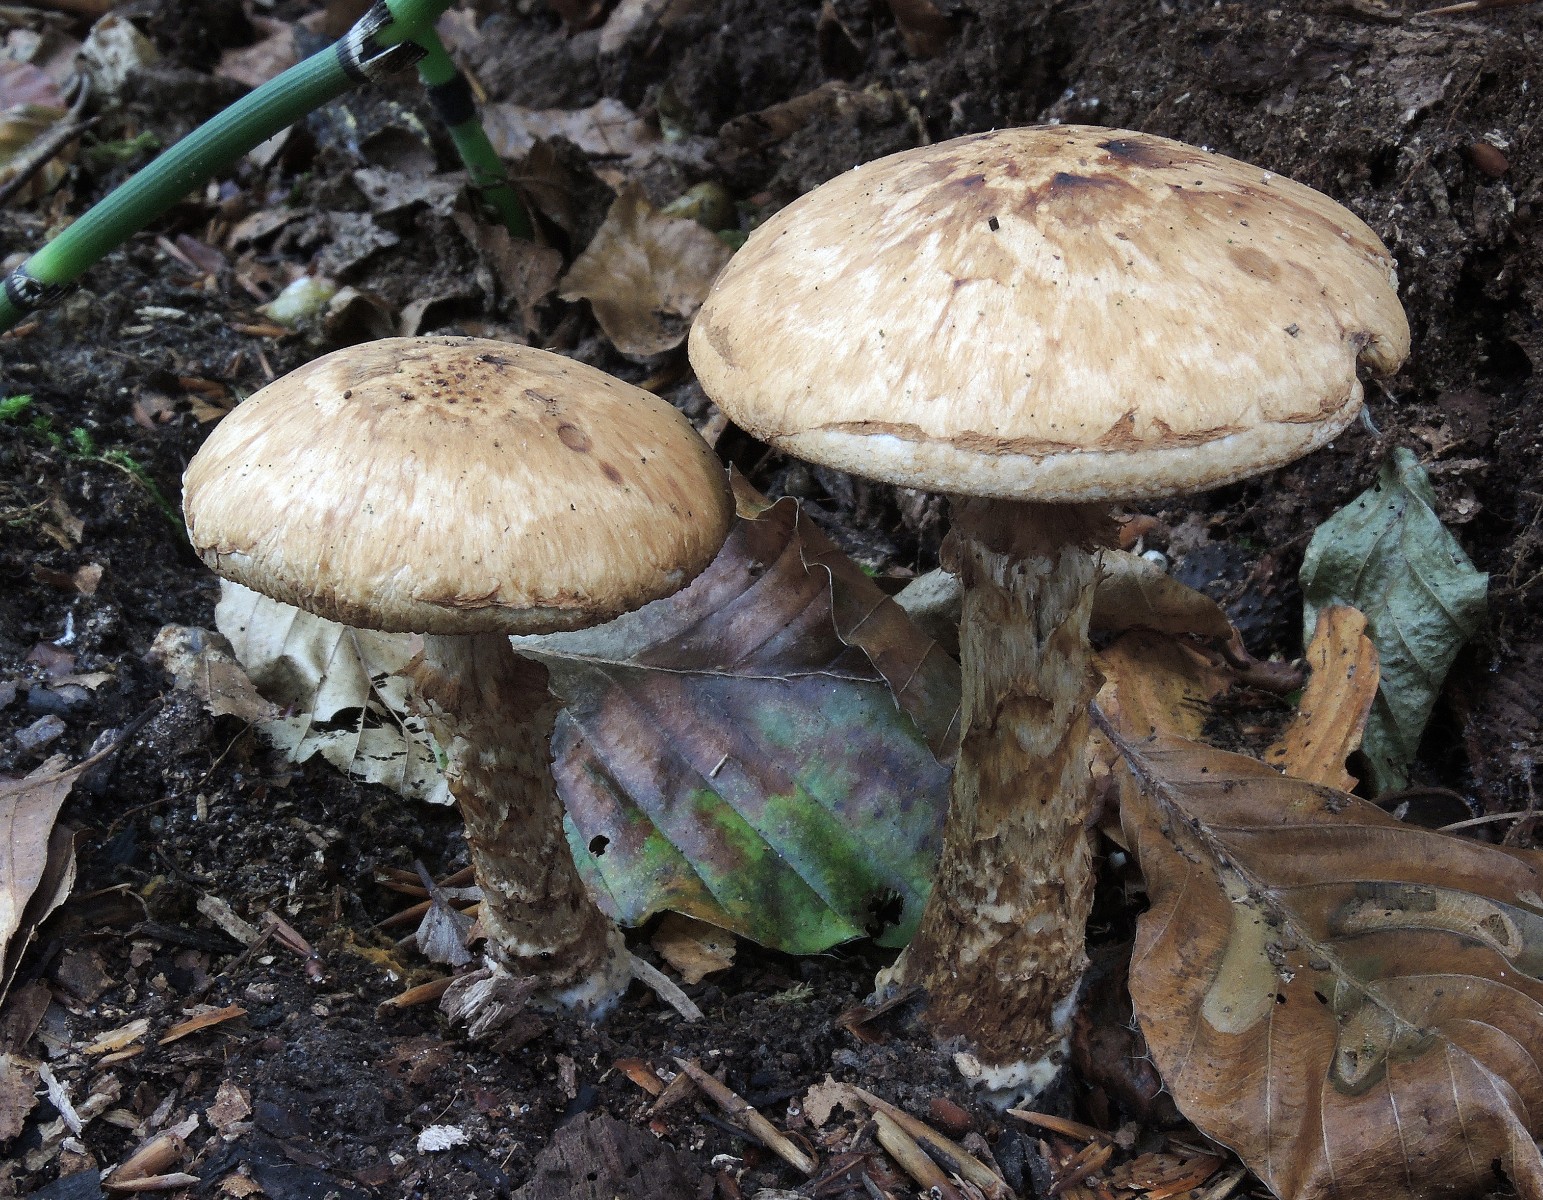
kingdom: Fungi
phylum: Basidiomycota
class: Agaricomycetes
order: Agaricales
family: Hymenogastraceae
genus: Hebeloma
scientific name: Hebeloma radicosum
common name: pælerods-tåreblad
